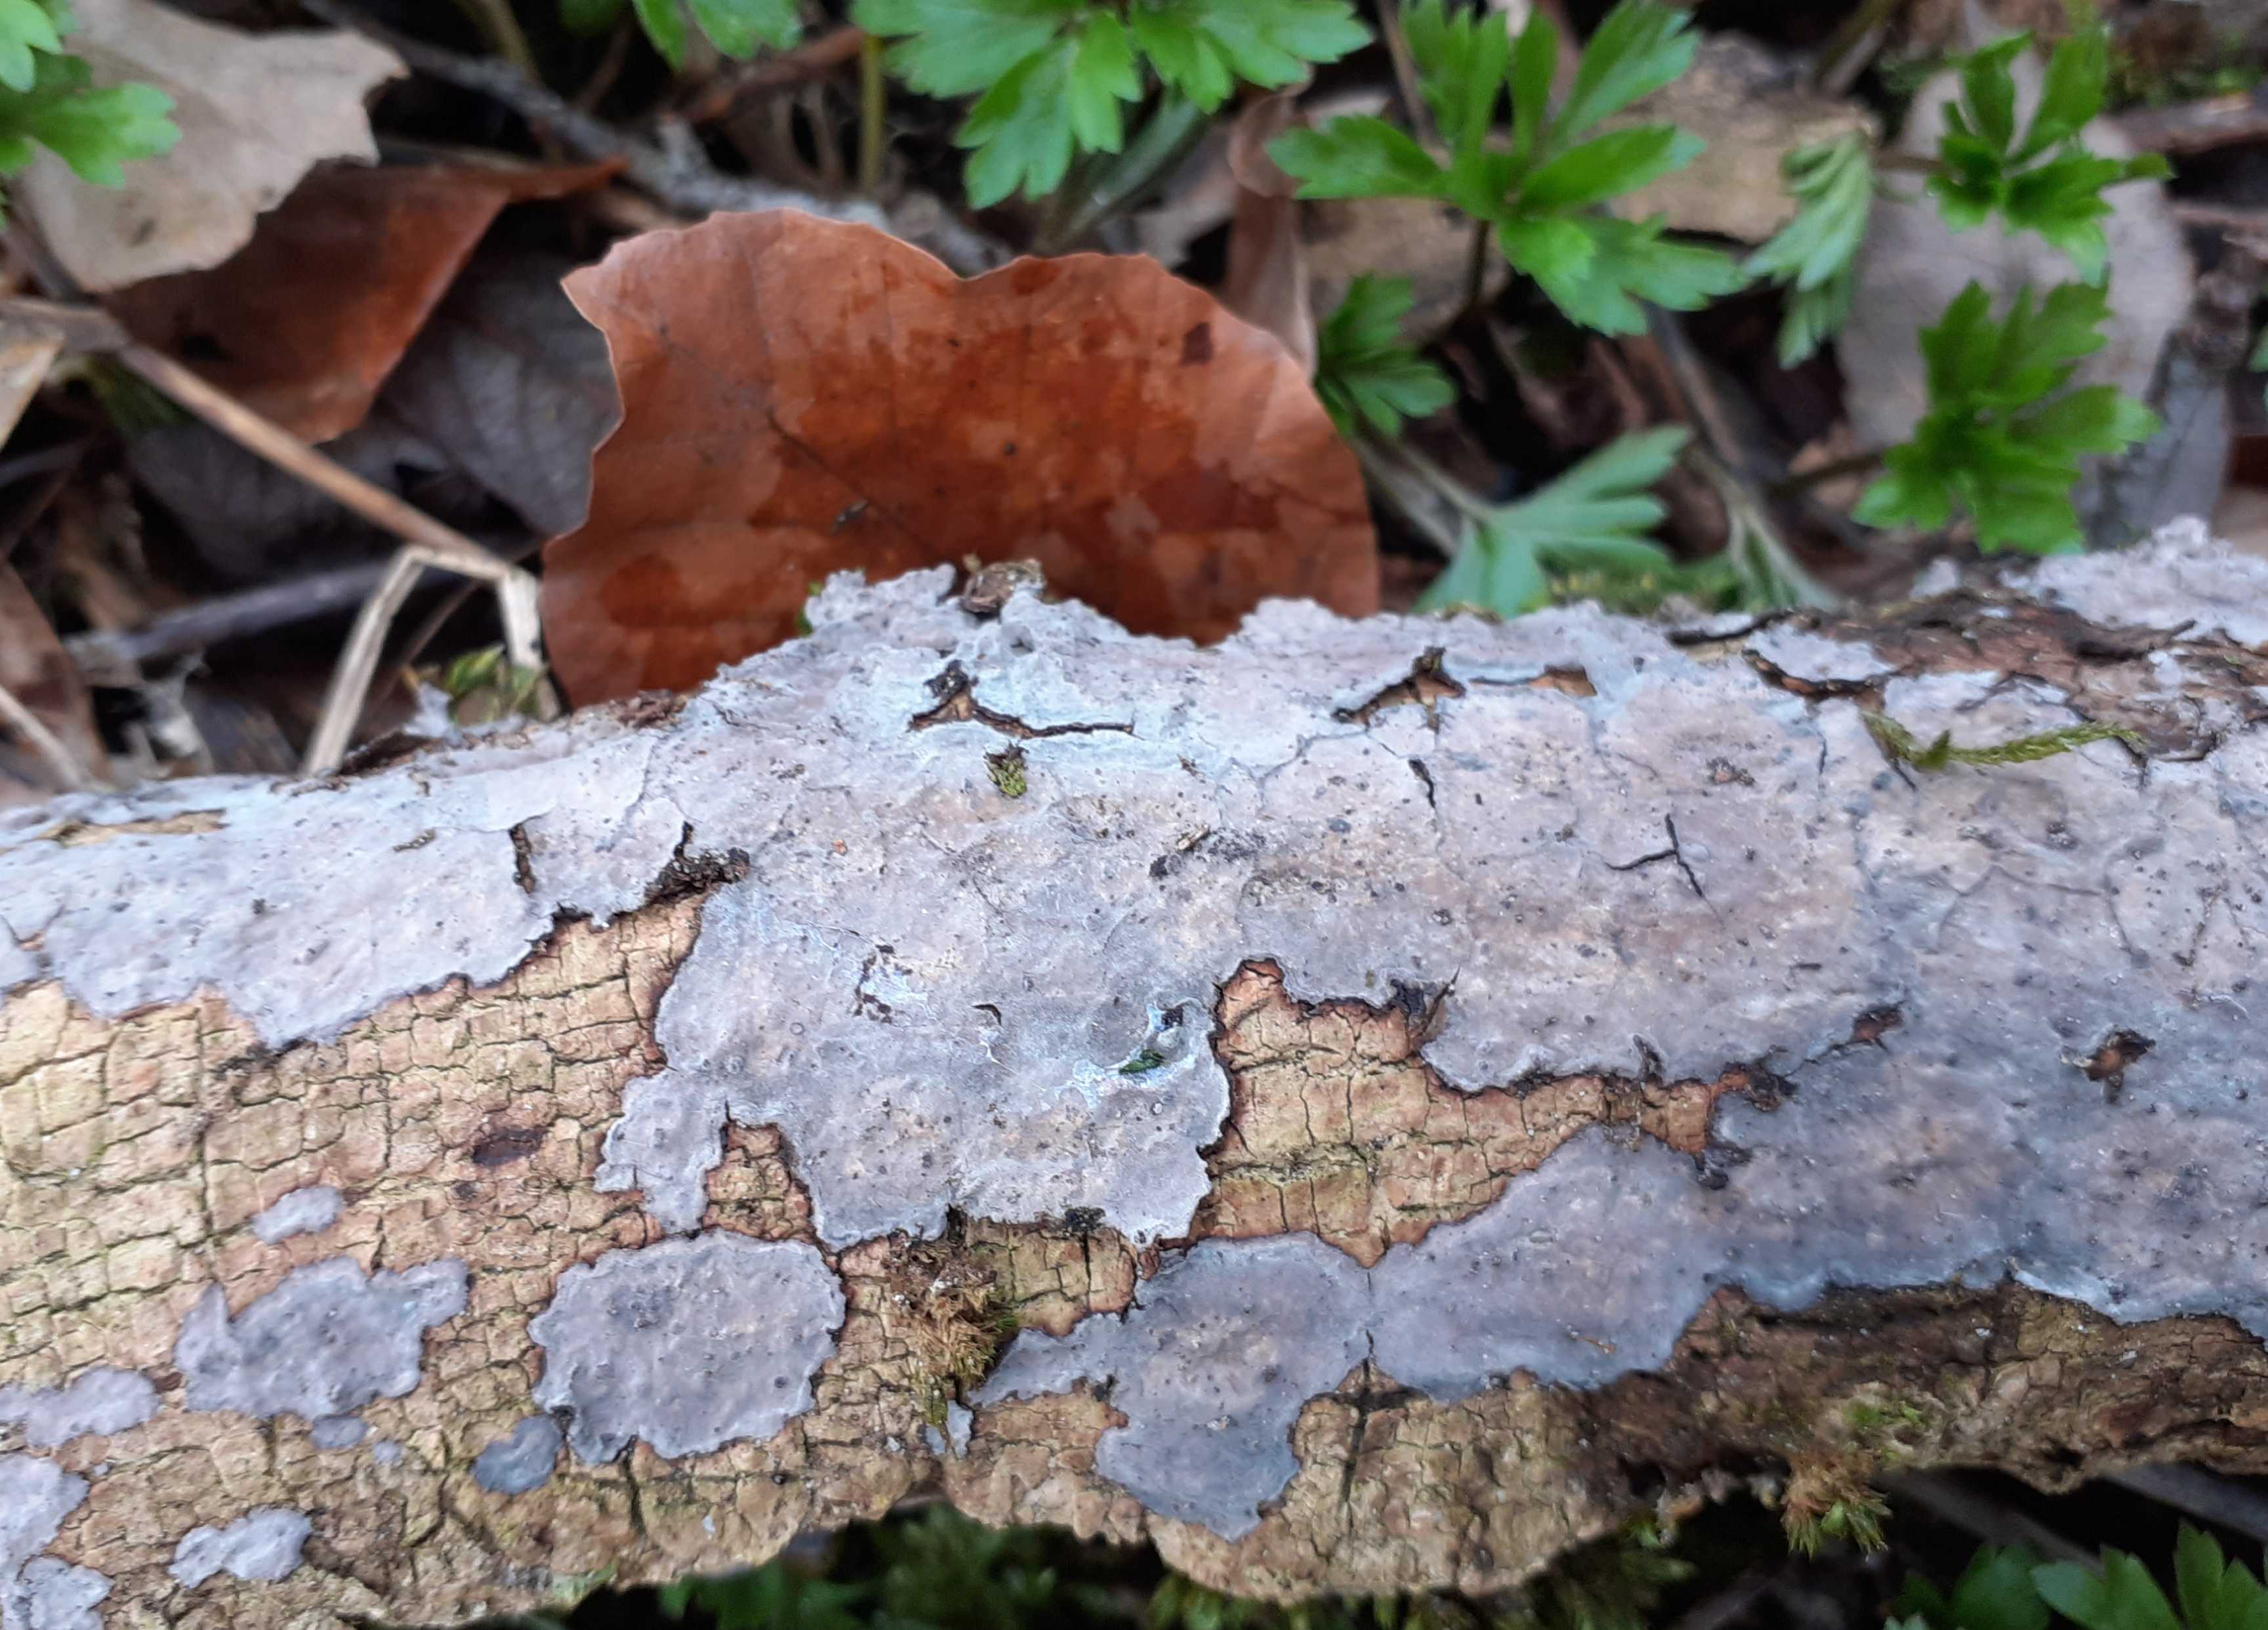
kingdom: Fungi
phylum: Basidiomycota
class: Agaricomycetes
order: Russulales
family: Peniophoraceae
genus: Peniophora
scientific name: Peniophora limitata
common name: mørkrandet voksskind
